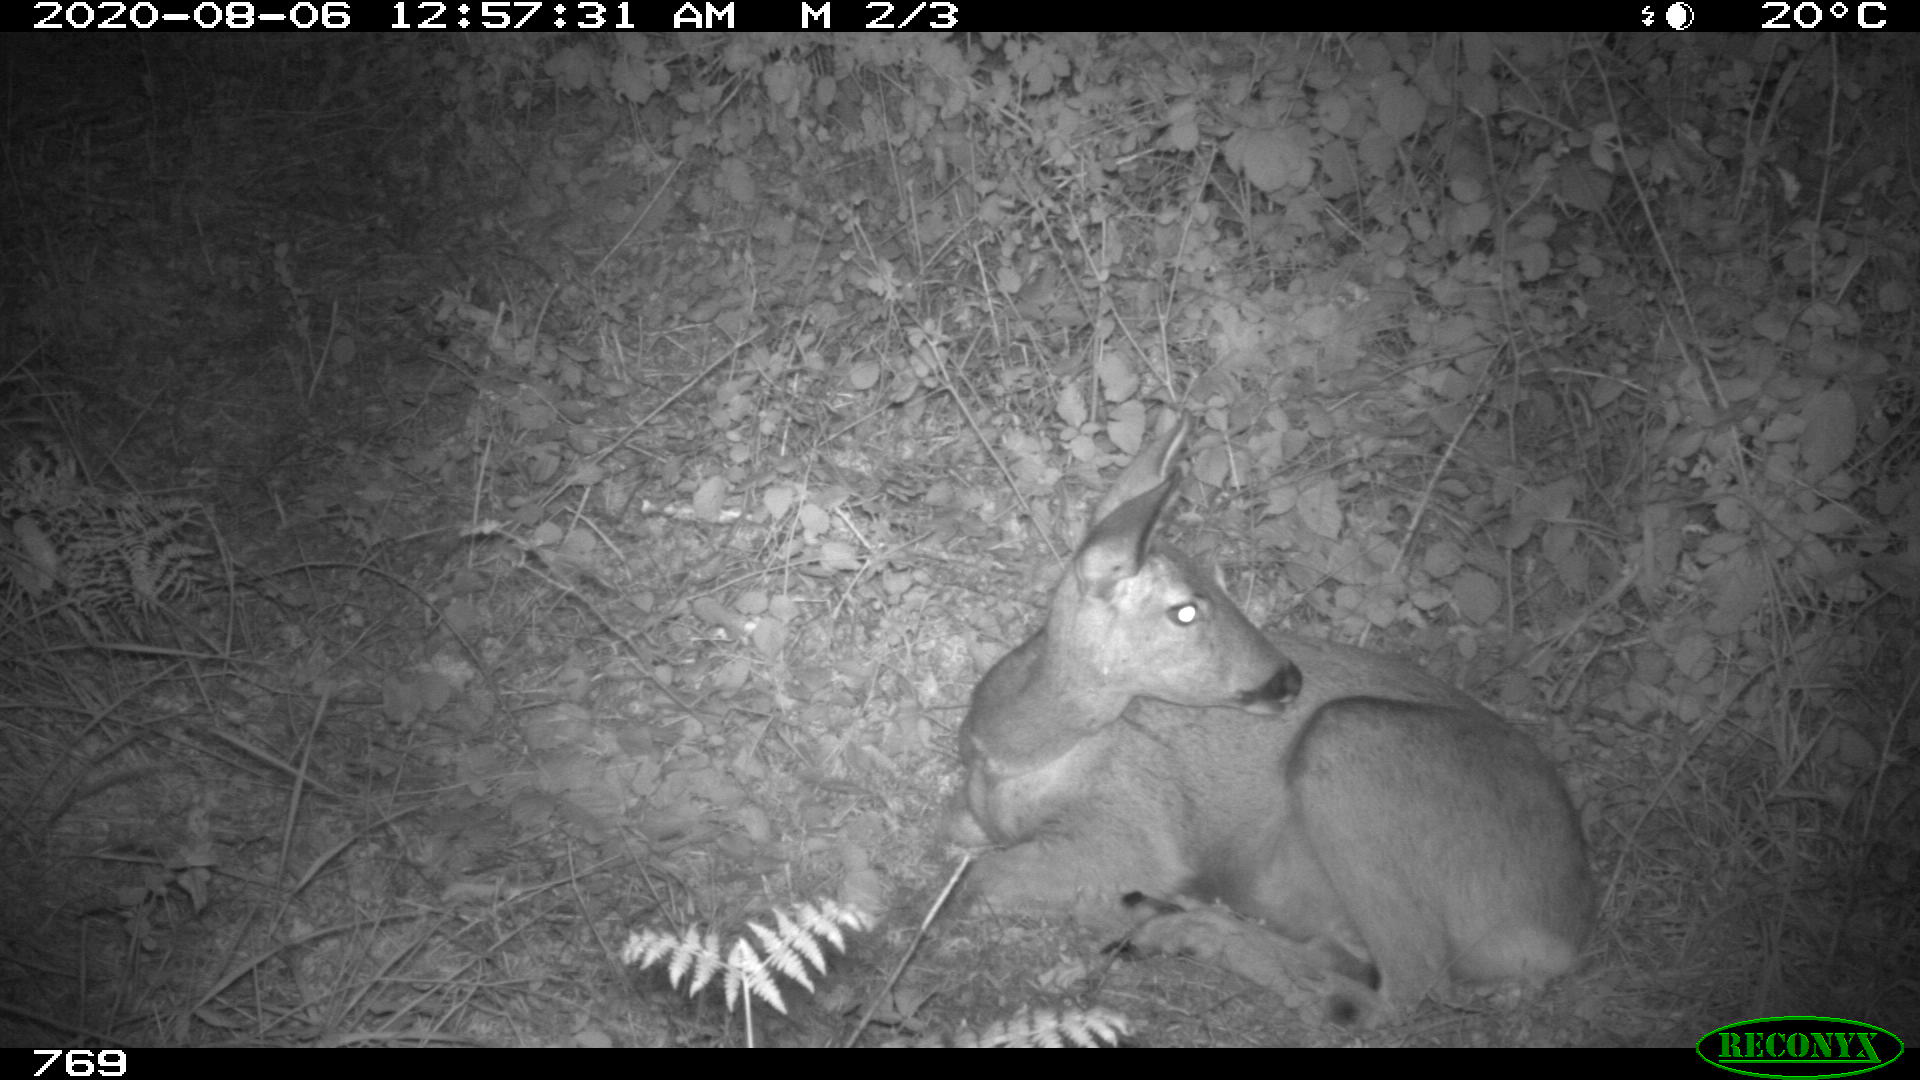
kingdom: Animalia
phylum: Chordata
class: Mammalia
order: Artiodactyla
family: Cervidae
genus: Capreolus
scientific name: Capreolus capreolus
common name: Western roe deer
